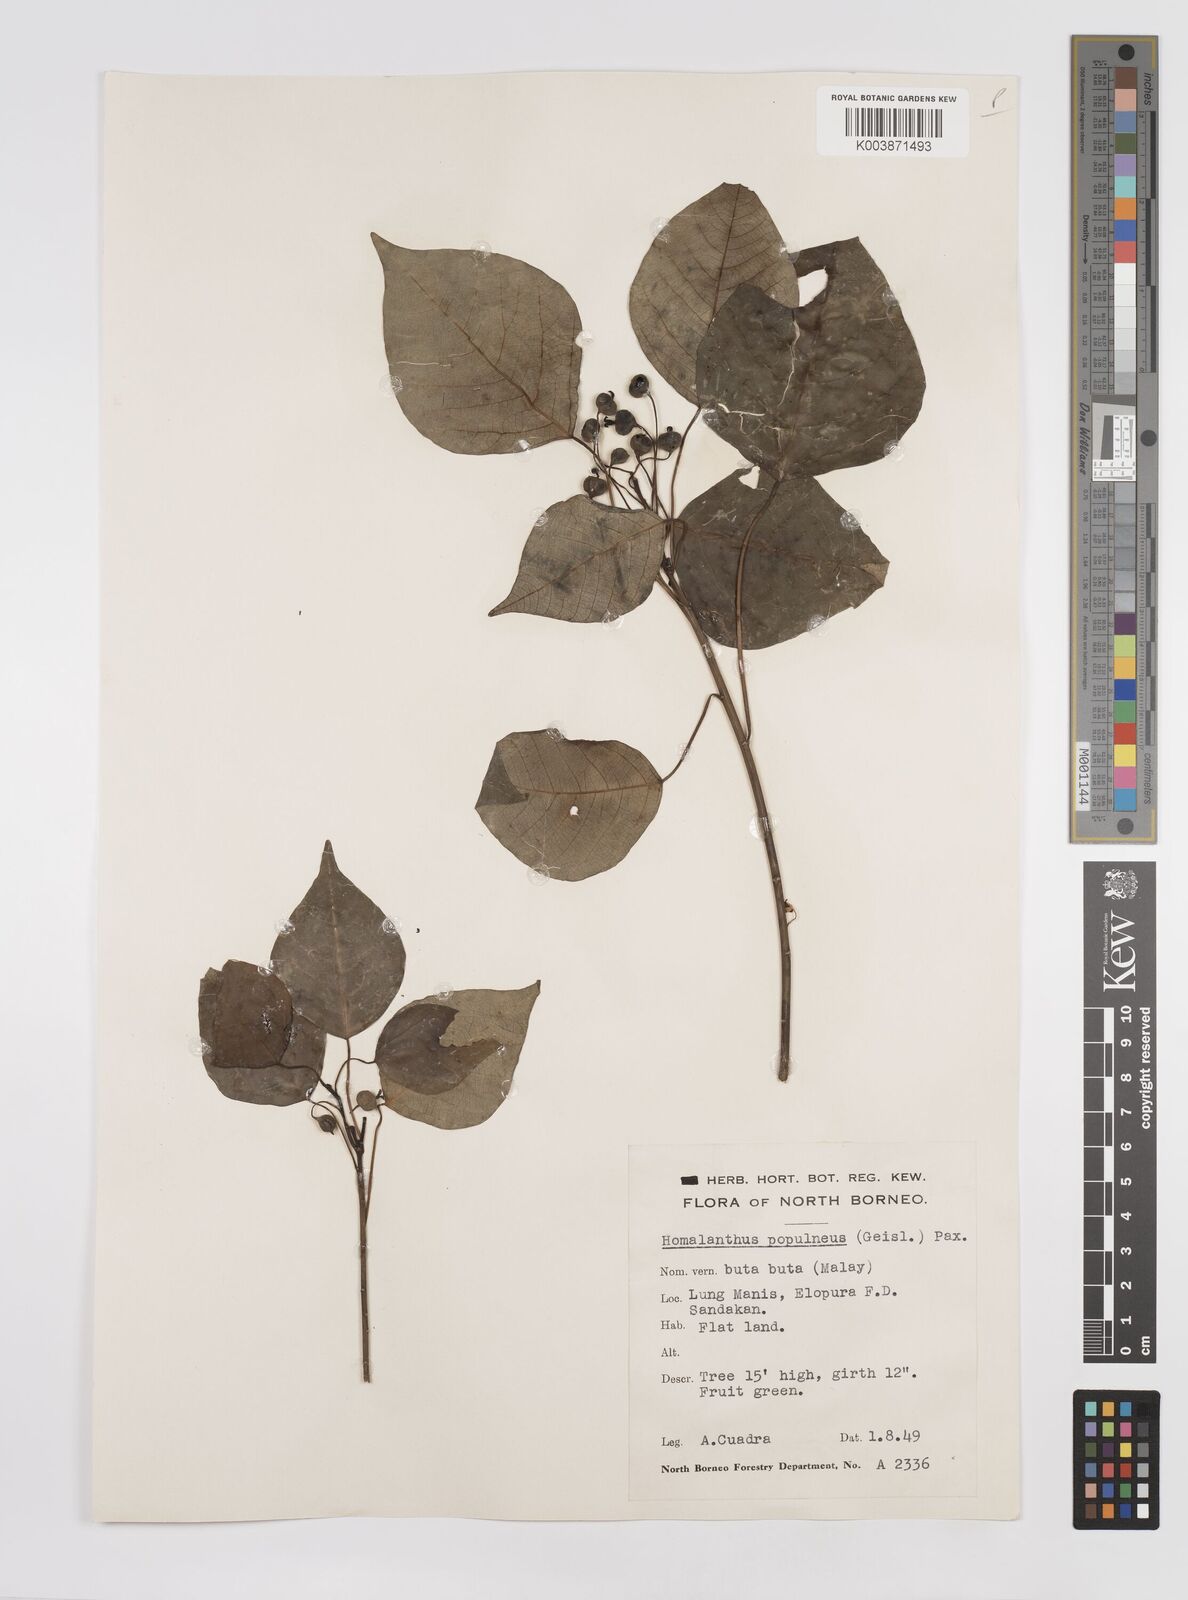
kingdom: Plantae
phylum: Tracheophyta
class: Magnoliopsida
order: Malpighiales
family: Euphorbiaceae
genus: Homalanthus
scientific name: Homalanthus populneus
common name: Spurge
